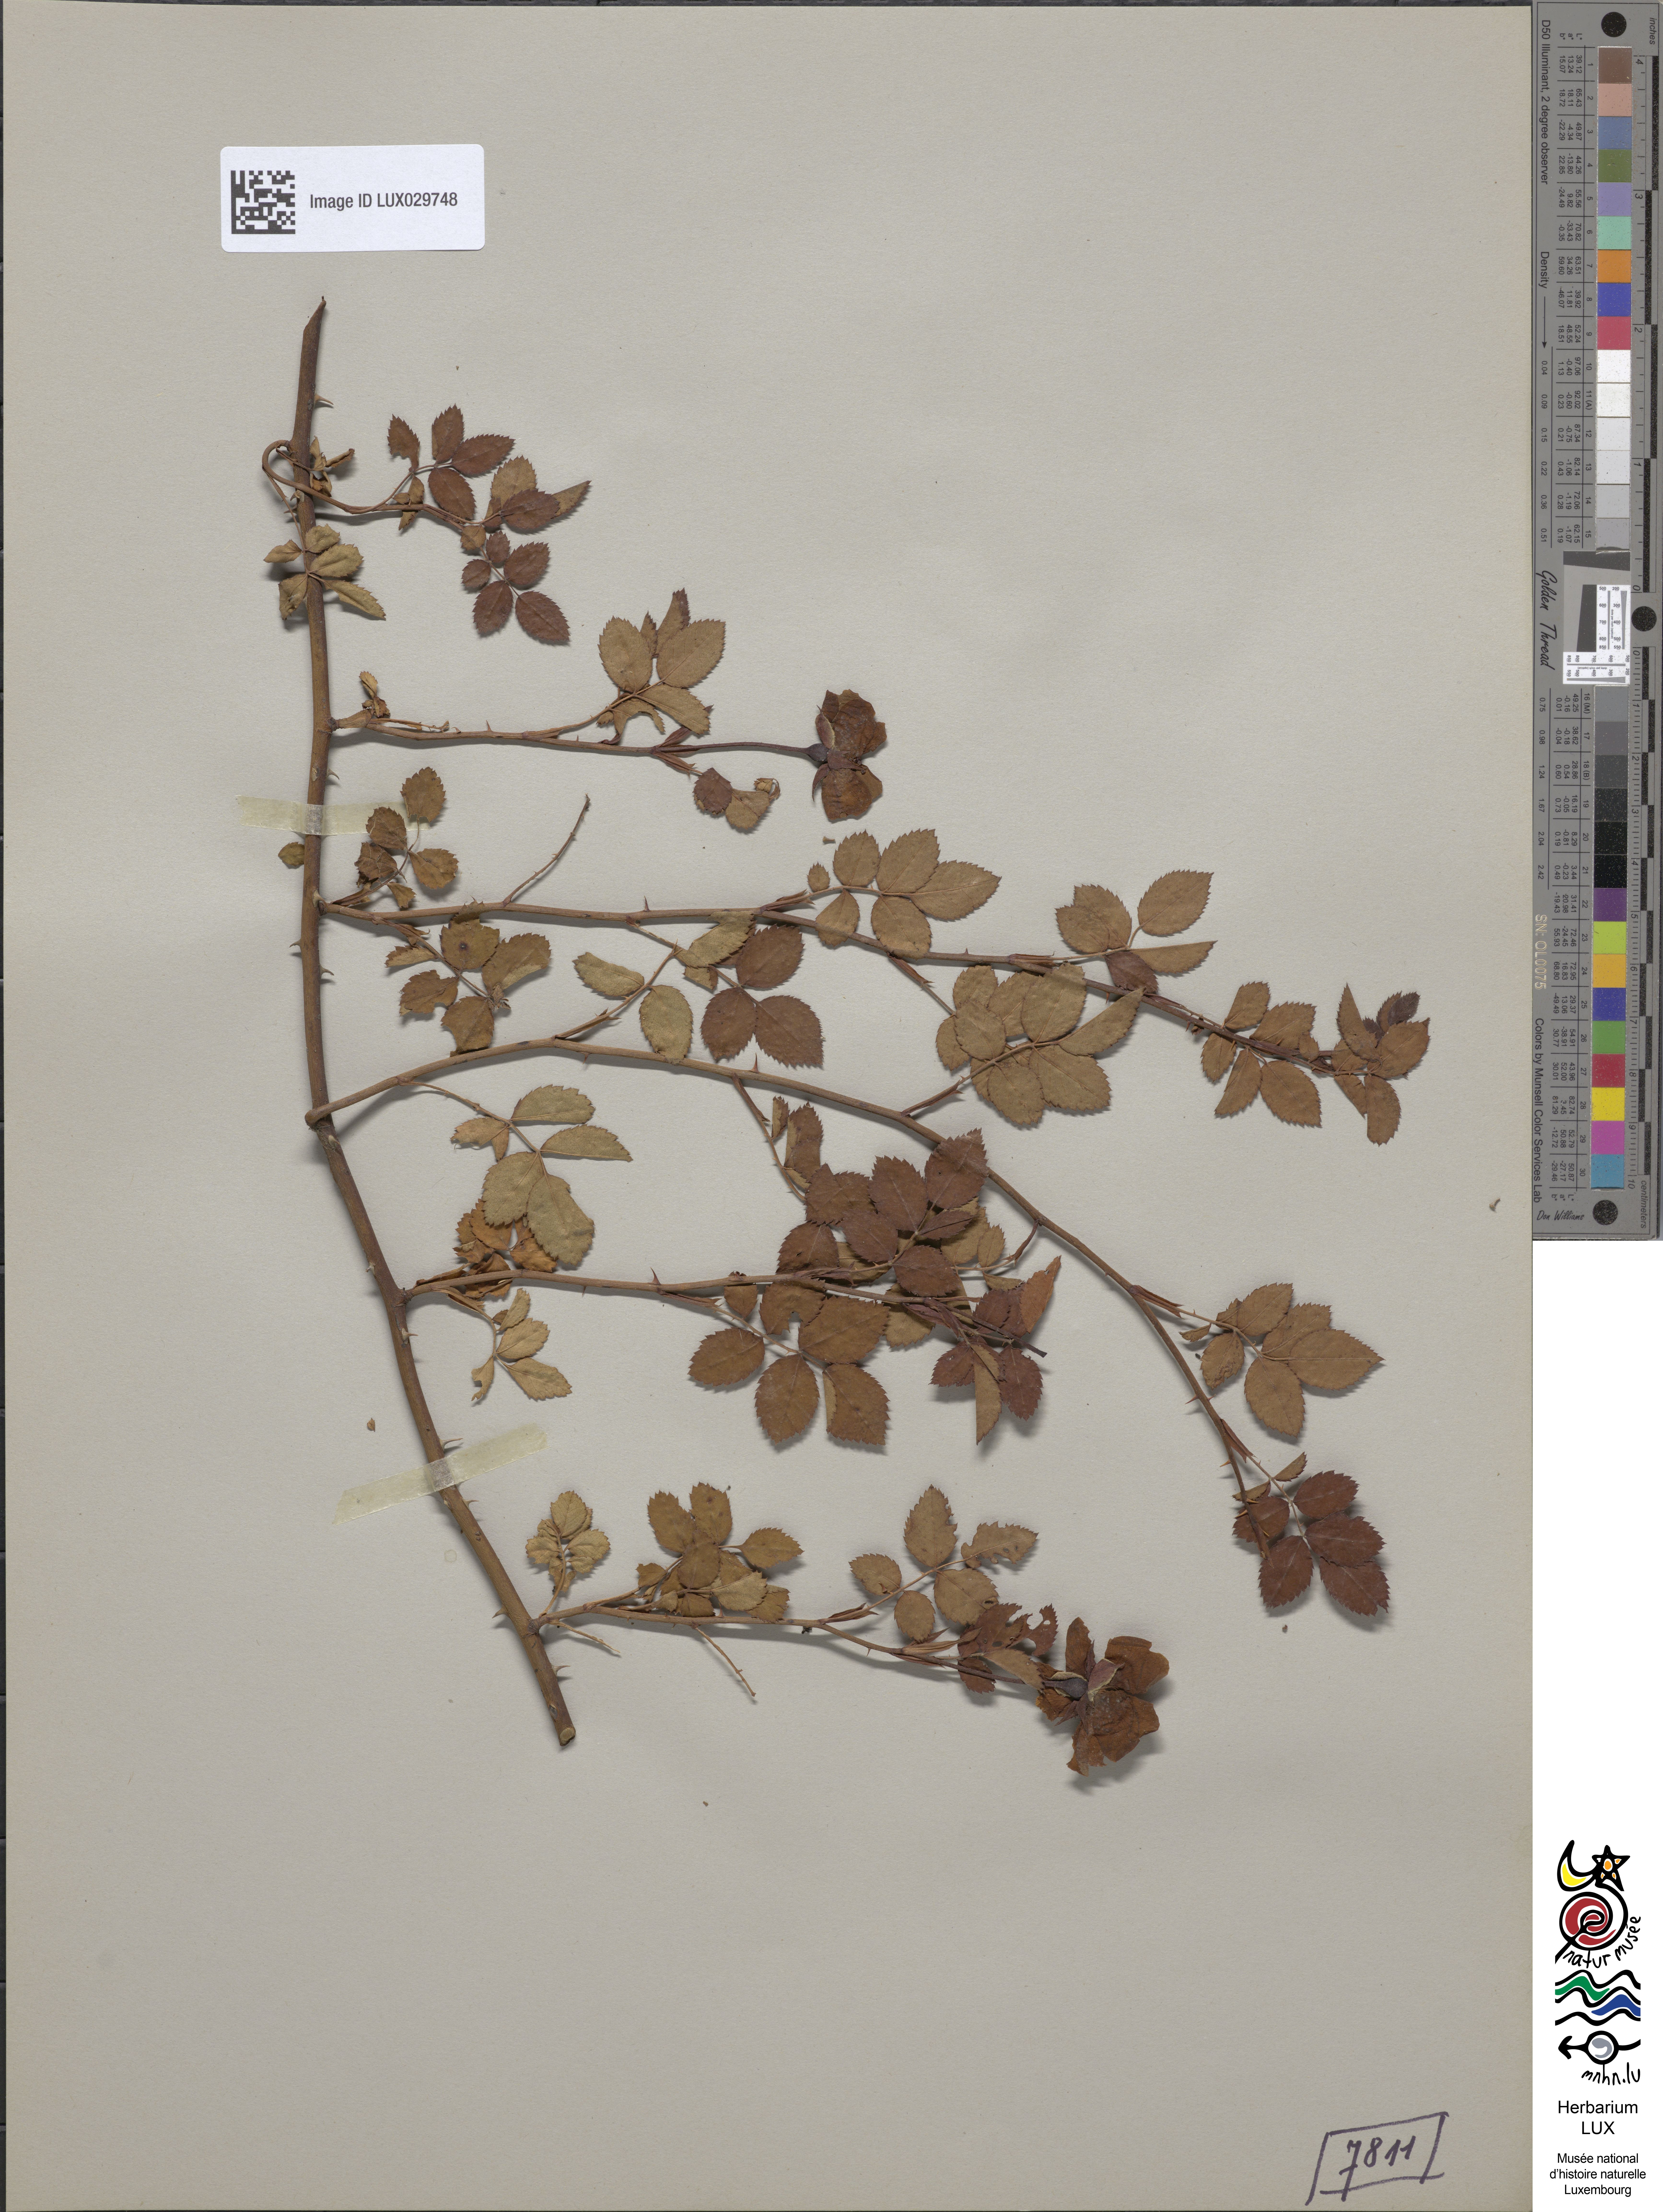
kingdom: Plantae
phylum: Tracheophyta
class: Magnoliopsida
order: Rosales
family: Rosaceae
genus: Rosa
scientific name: Rosa arvensis
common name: Field rose
